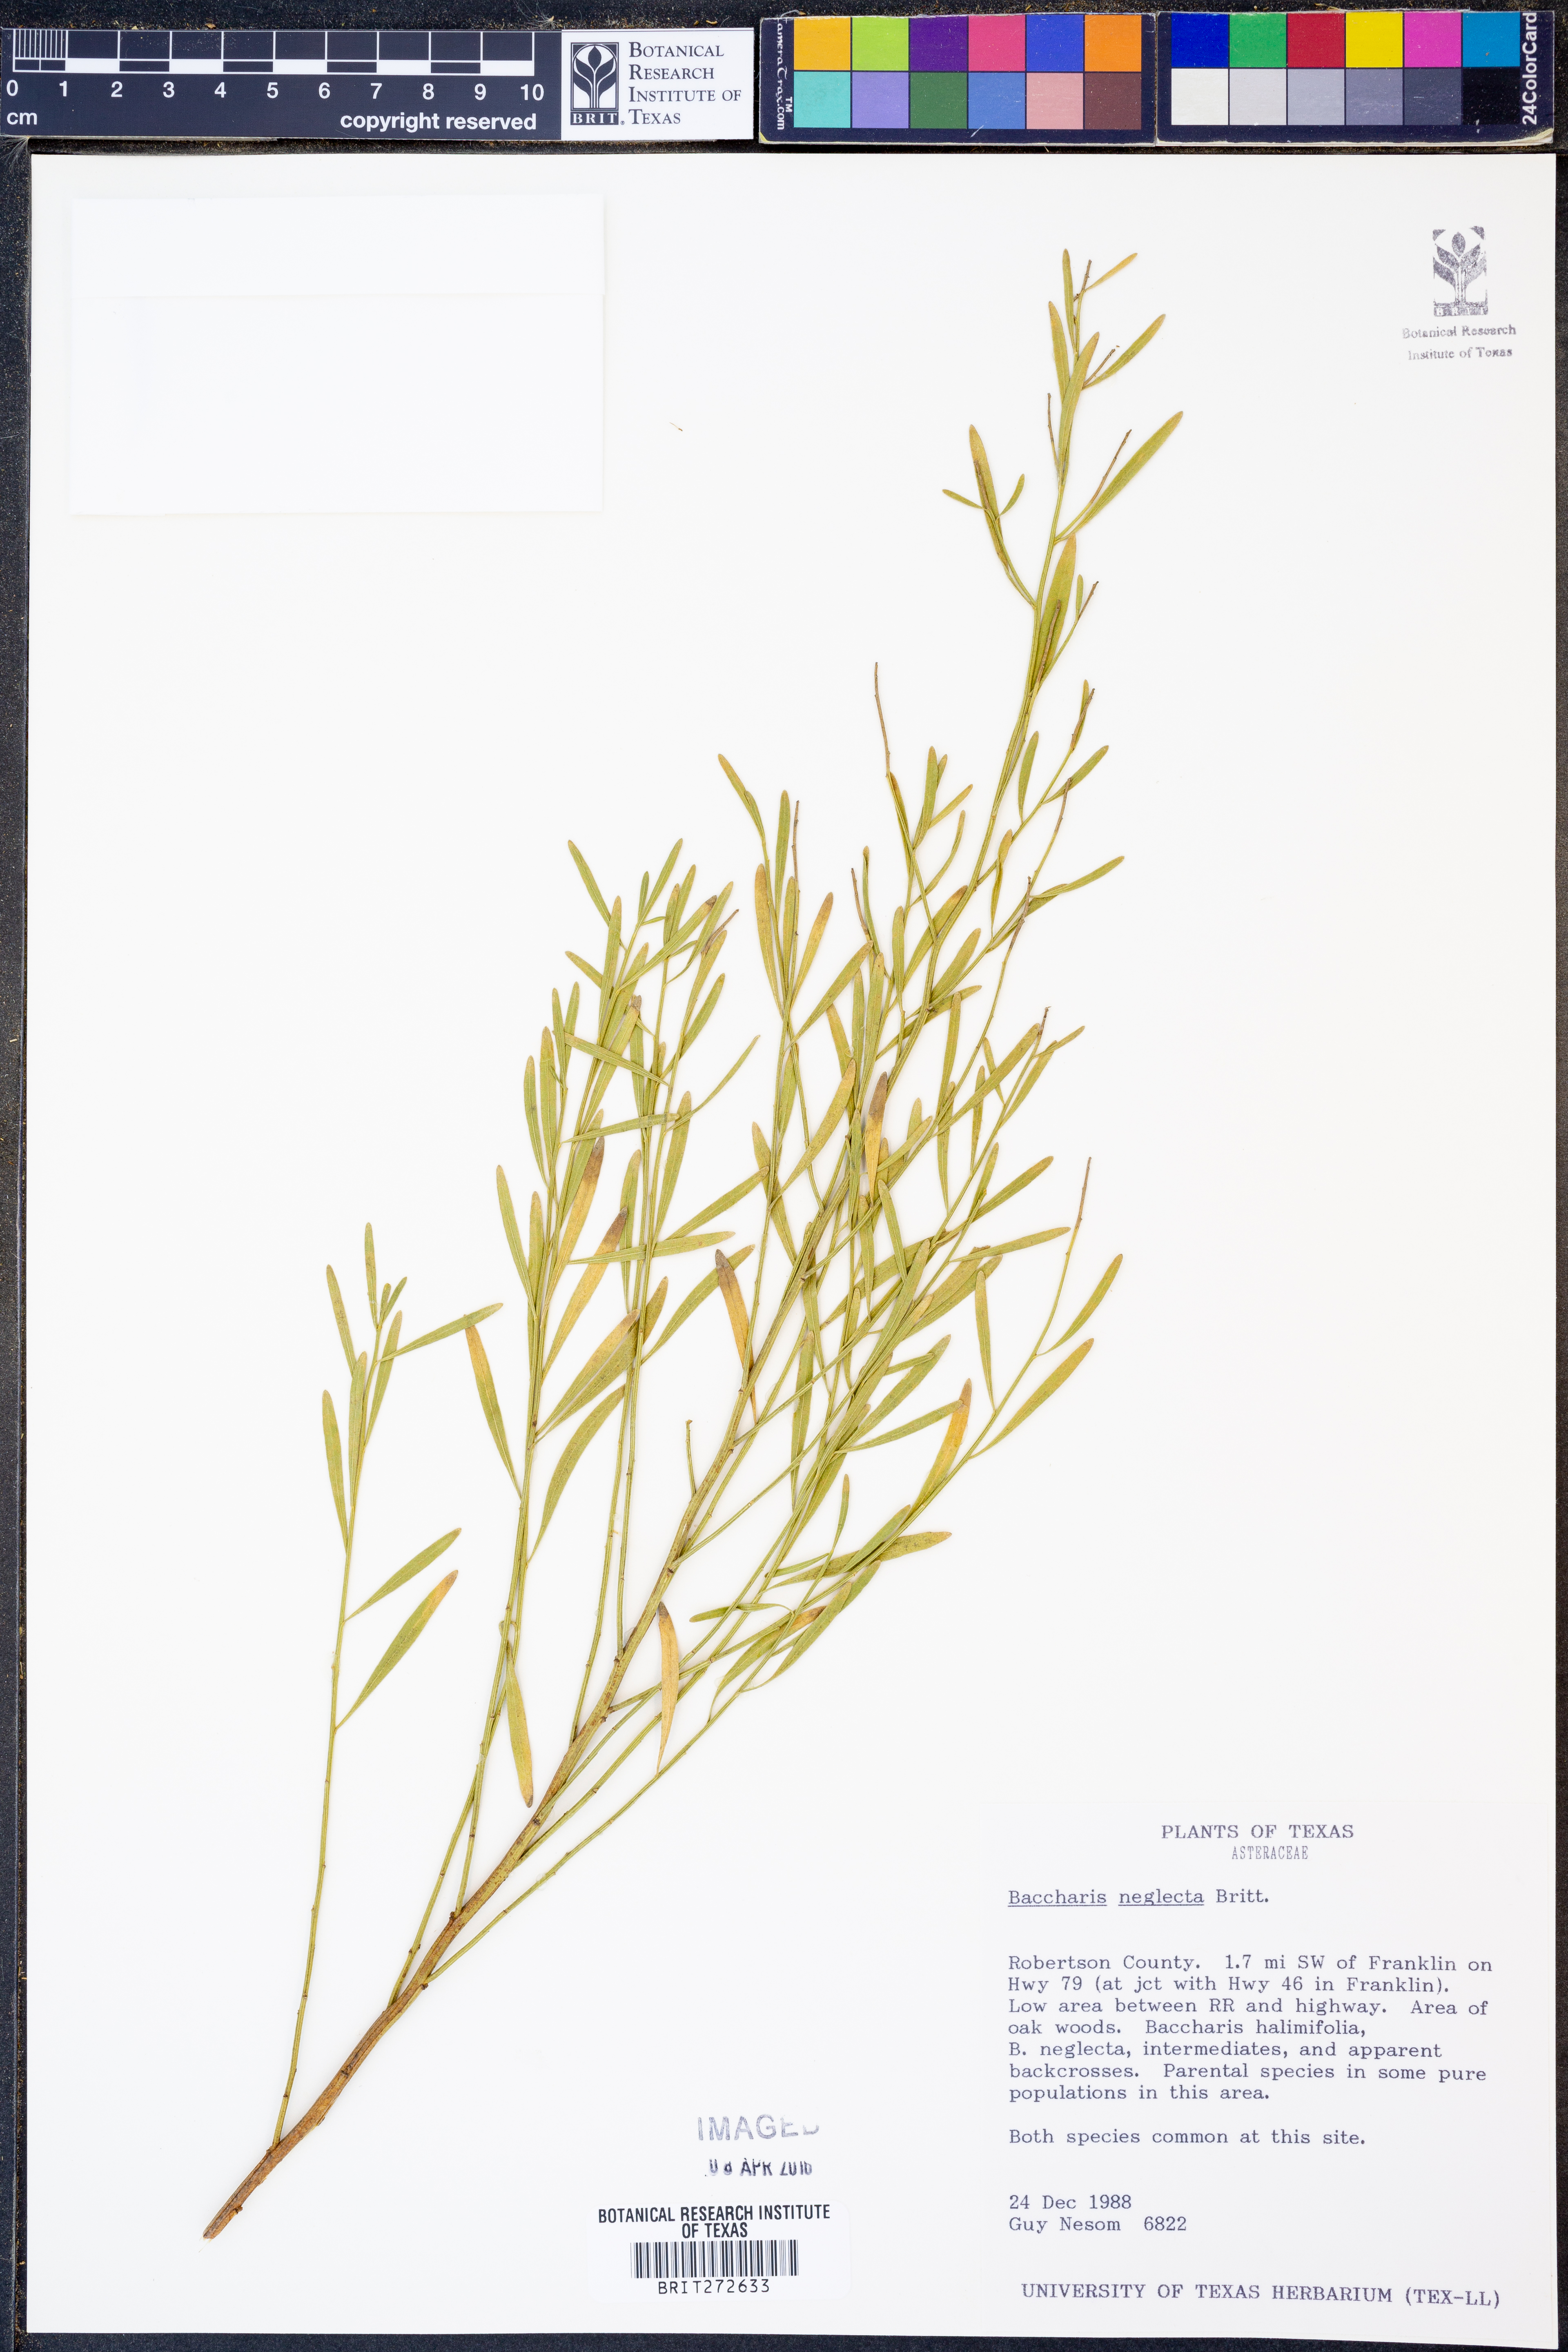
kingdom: Plantae
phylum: Tracheophyta
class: Magnoliopsida
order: Asterales
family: Asteraceae
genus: Baccharis
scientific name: Baccharis neglecta
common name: Roosevelt-weed
